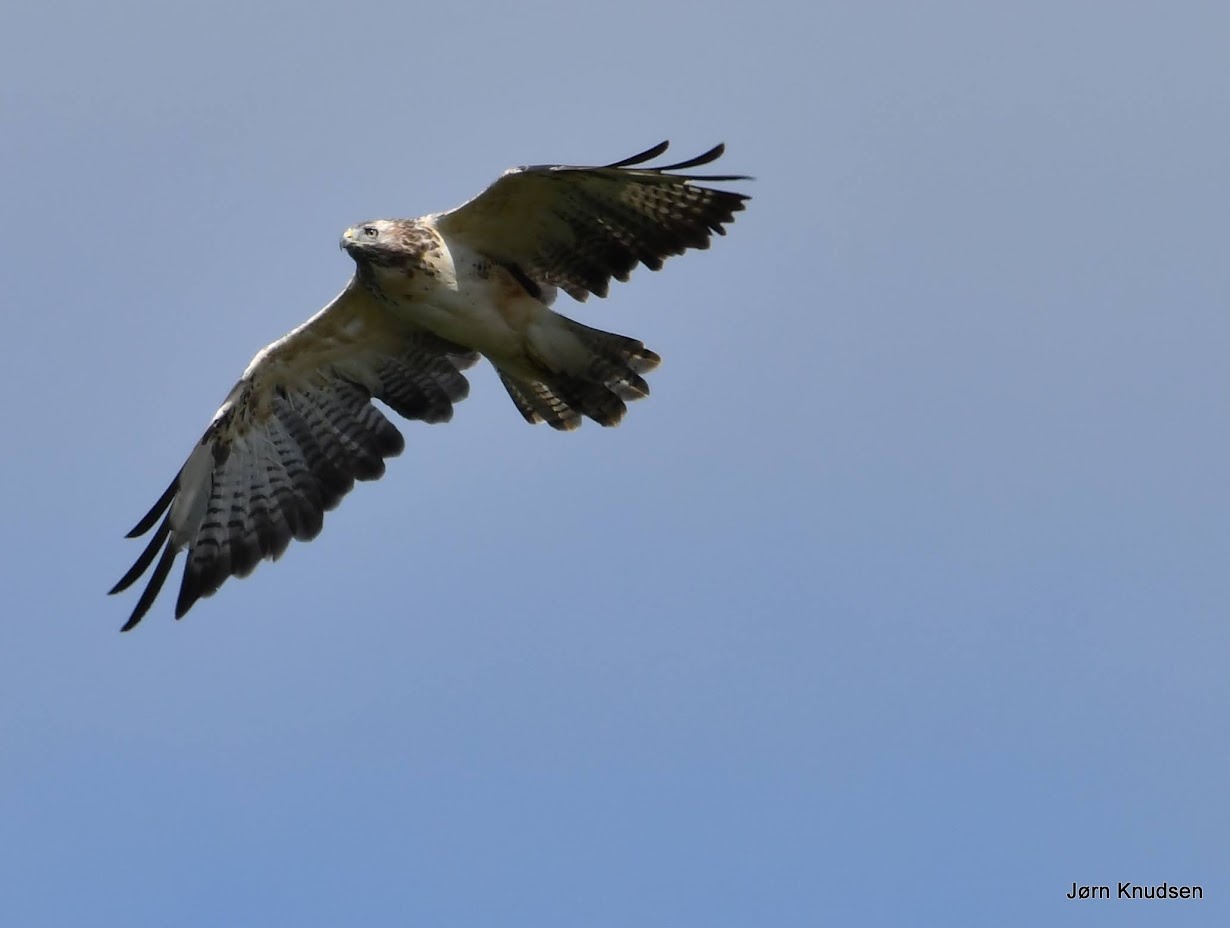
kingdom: Animalia
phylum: Chordata
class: Aves
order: Accipitriformes
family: Accipitridae
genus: Buteo
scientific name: Buteo buteo
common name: Musvåge
